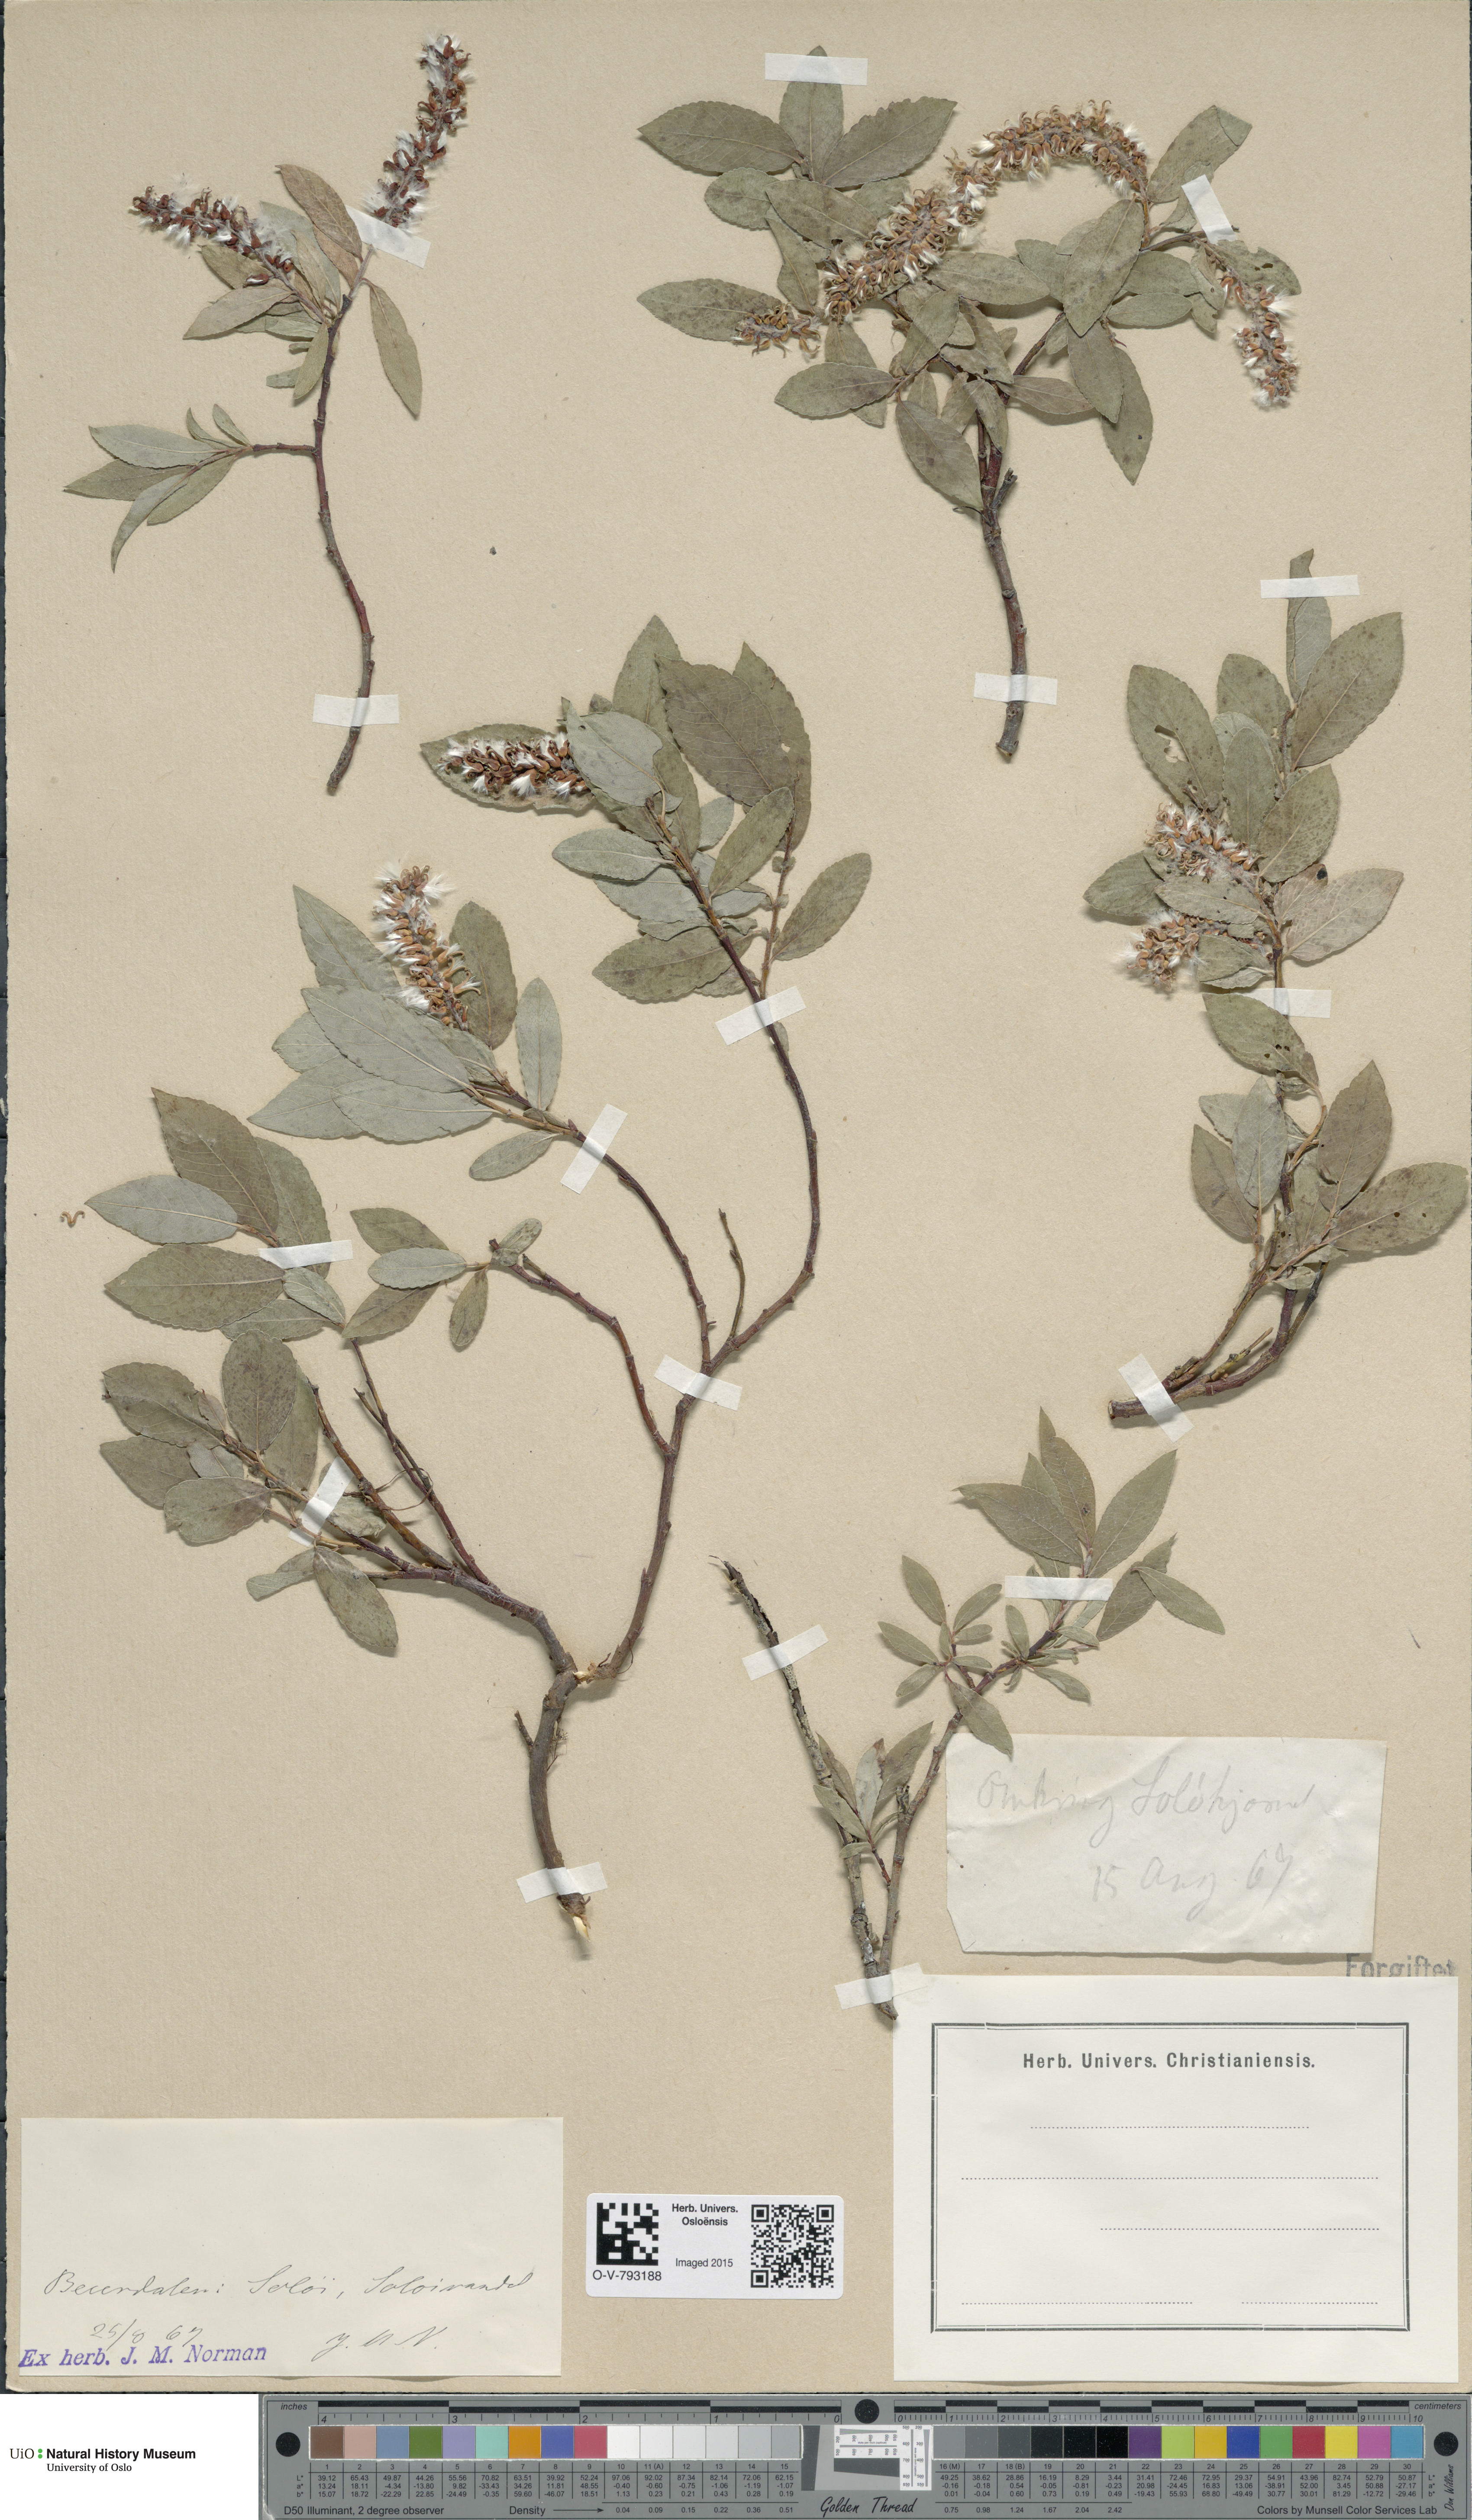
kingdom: Plantae
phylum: Tracheophyta
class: Magnoliopsida
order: Malpighiales
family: Salicaceae
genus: Salix
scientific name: Salix hastata
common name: Halberd willow
